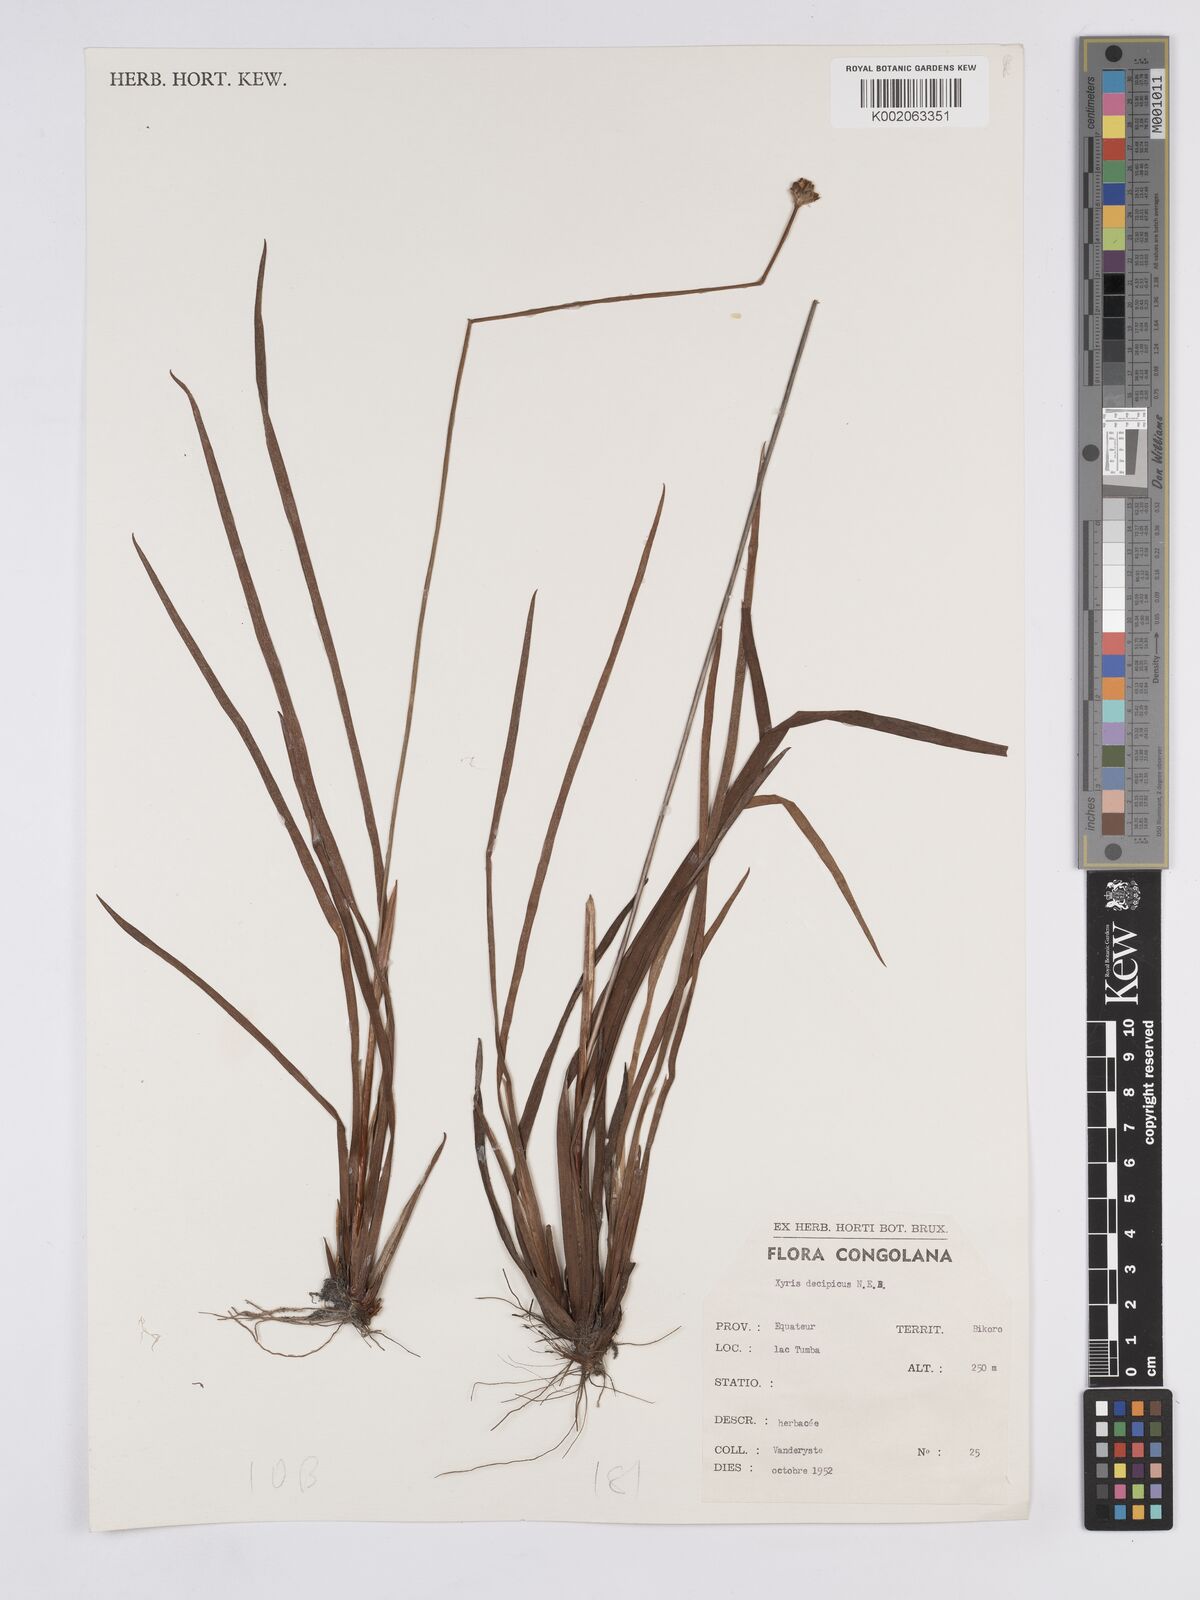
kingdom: Plantae
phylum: Tracheophyta
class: Liliopsida
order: Poales
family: Xyridaceae
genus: Xyris
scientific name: Xyris decipiens
